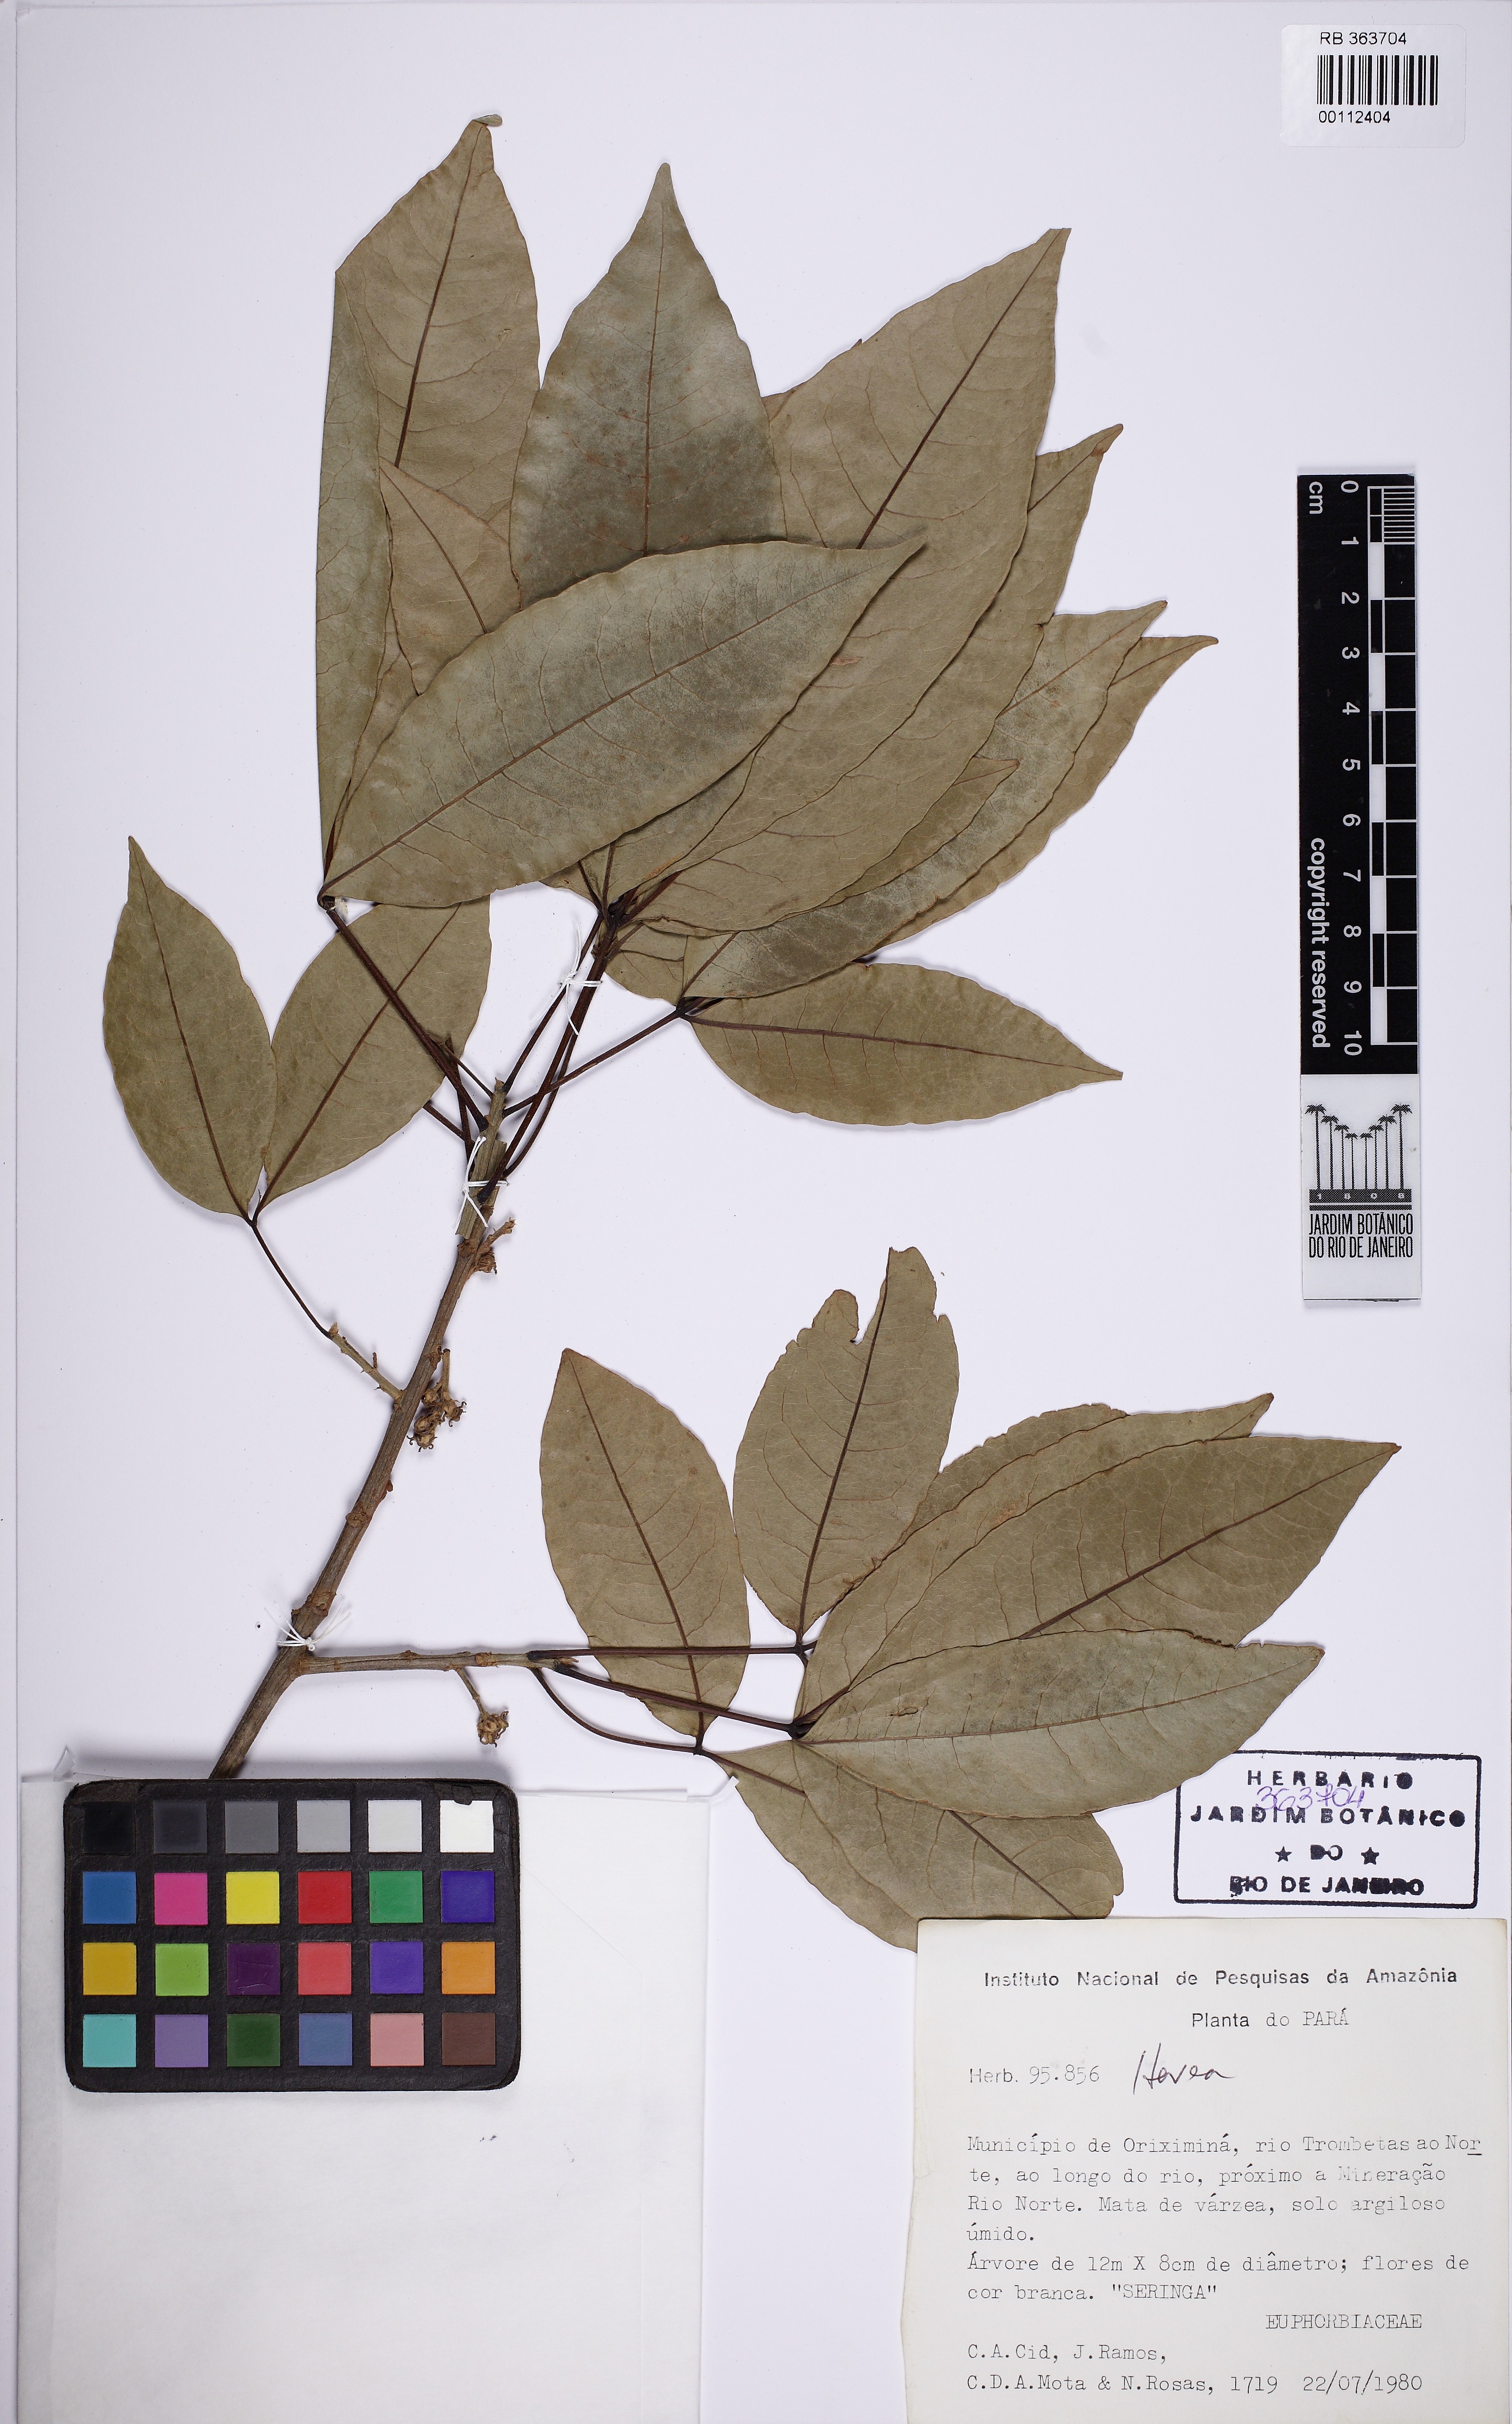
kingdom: Plantae
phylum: Tracheophyta
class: Magnoliopsida
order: Malpighiales
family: Euphorbiaceae
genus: Hevea
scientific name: Hevea
